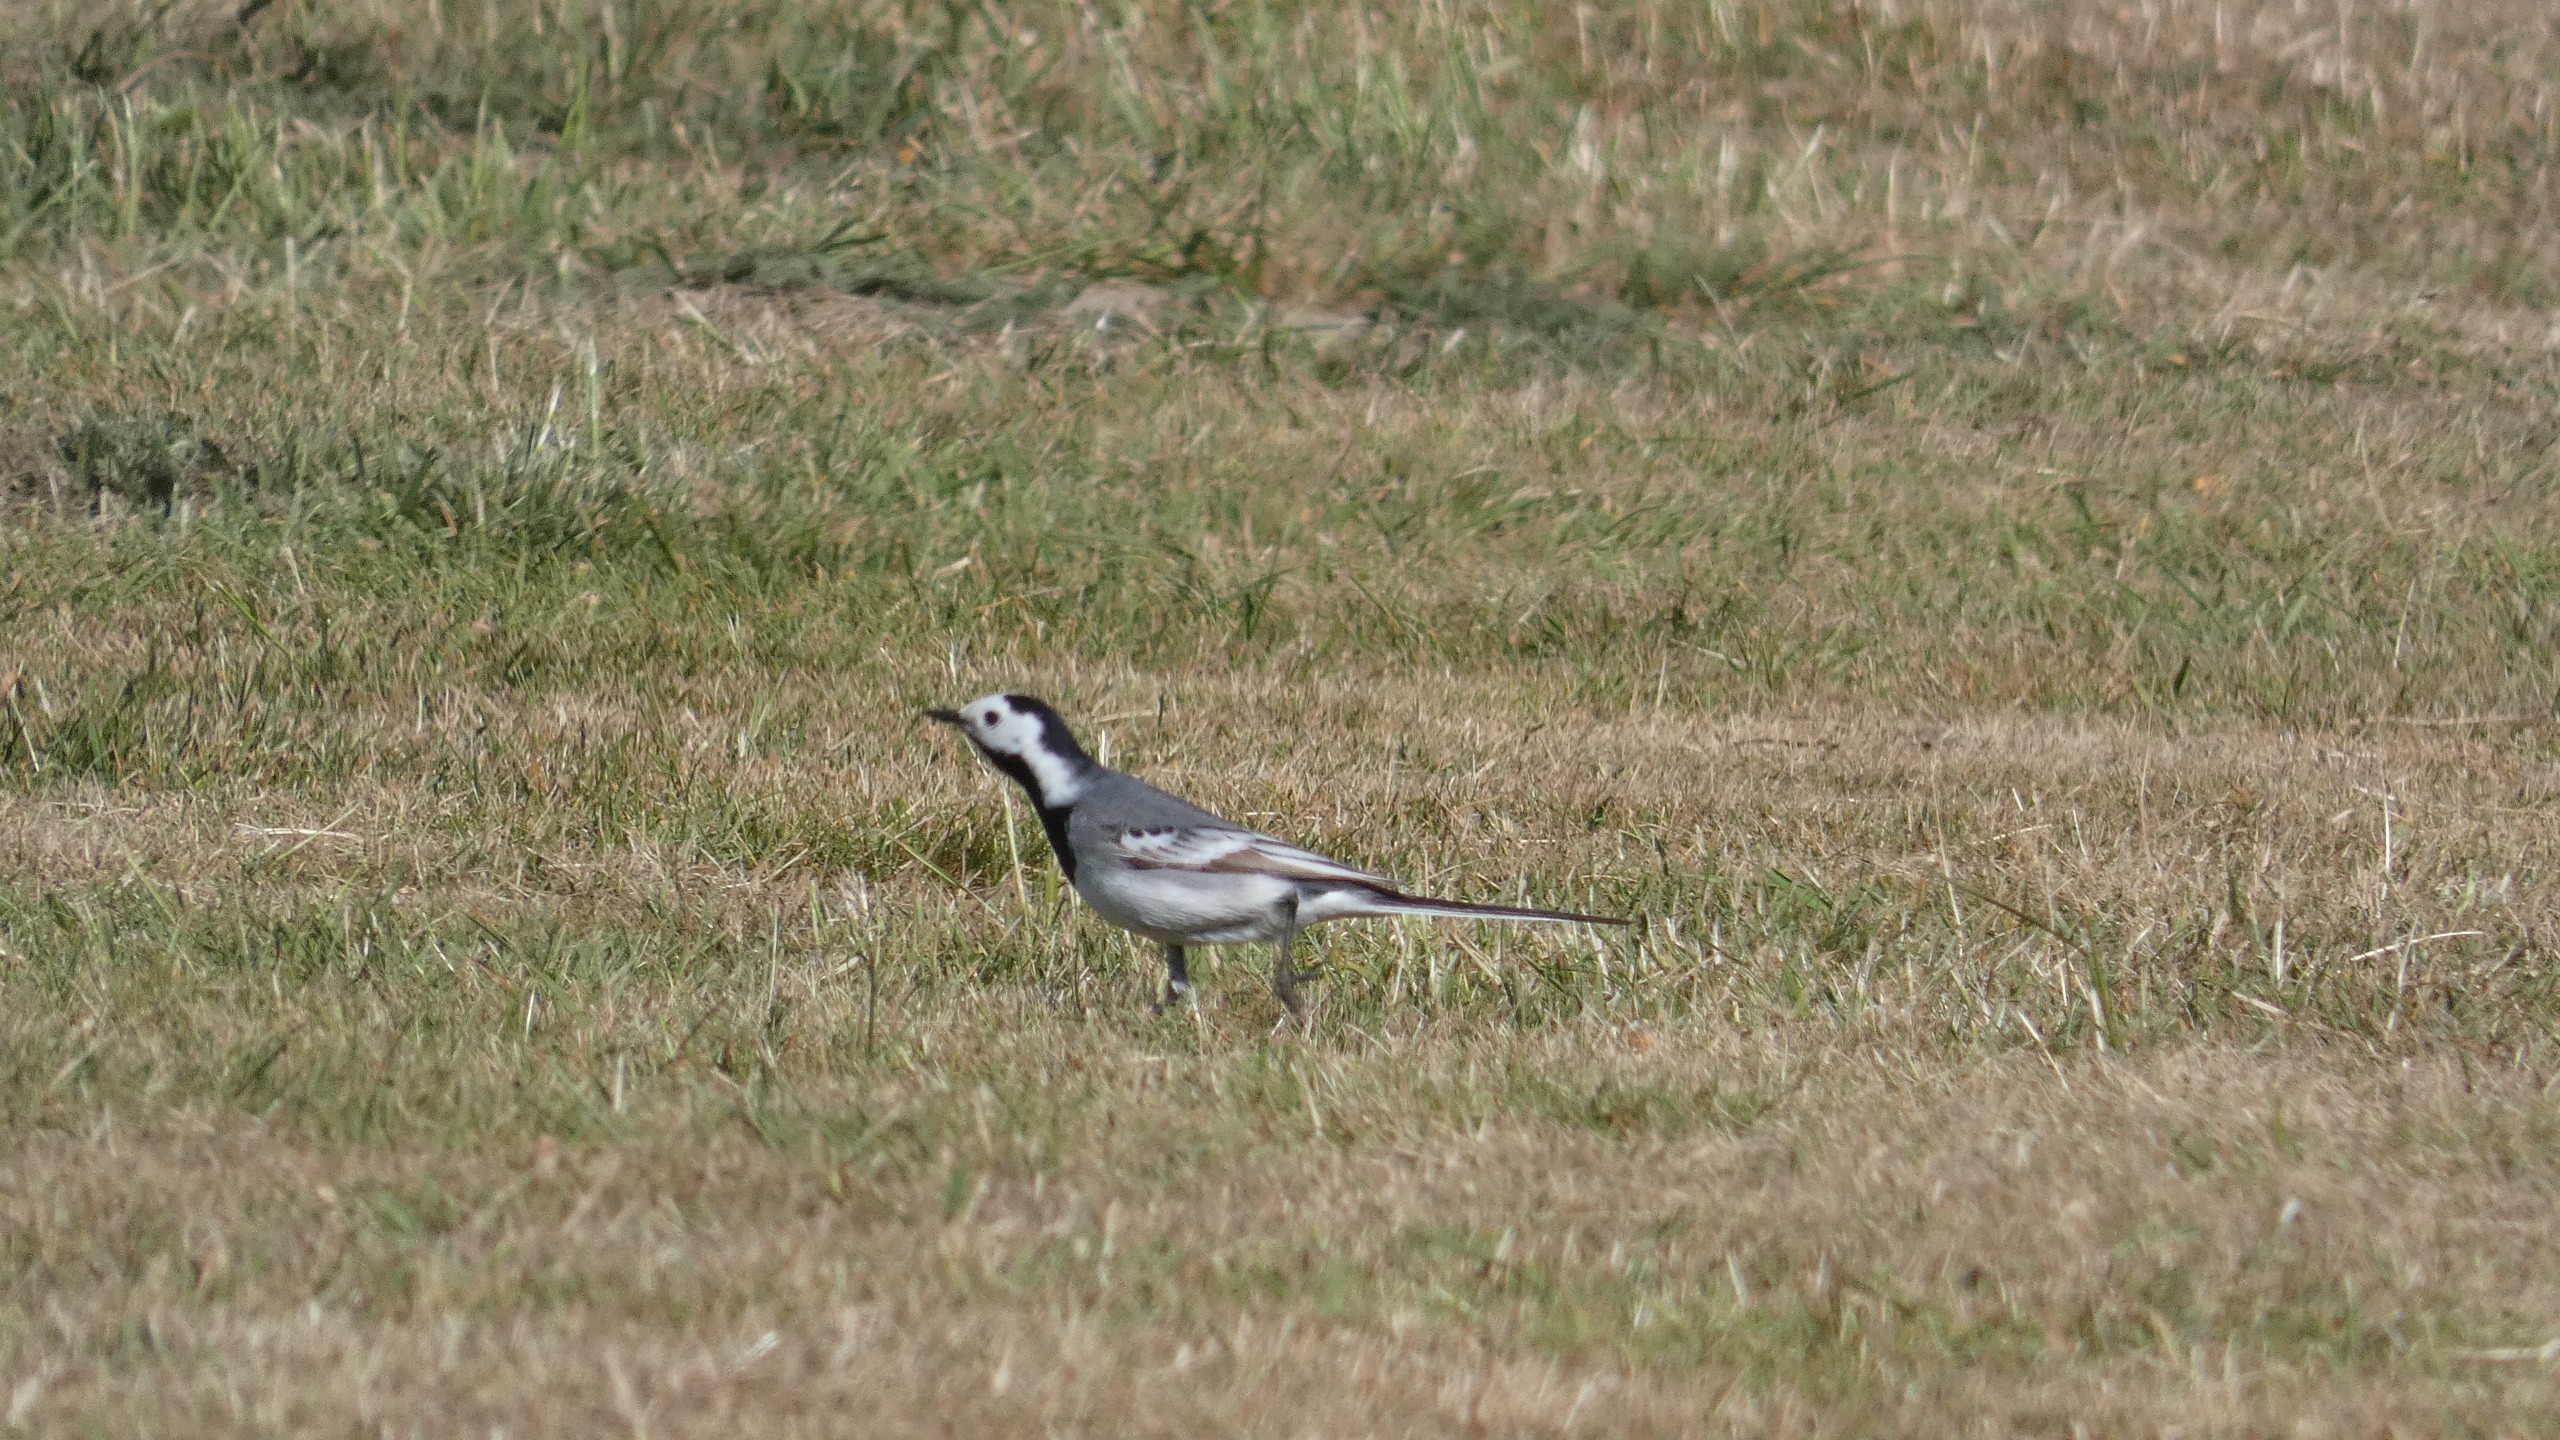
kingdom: Animalia
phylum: Chordata
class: Aves
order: Passeriformes
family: Motacillidae
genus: Motacilla
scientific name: Motacilla alba
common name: Hvid vipstjert
